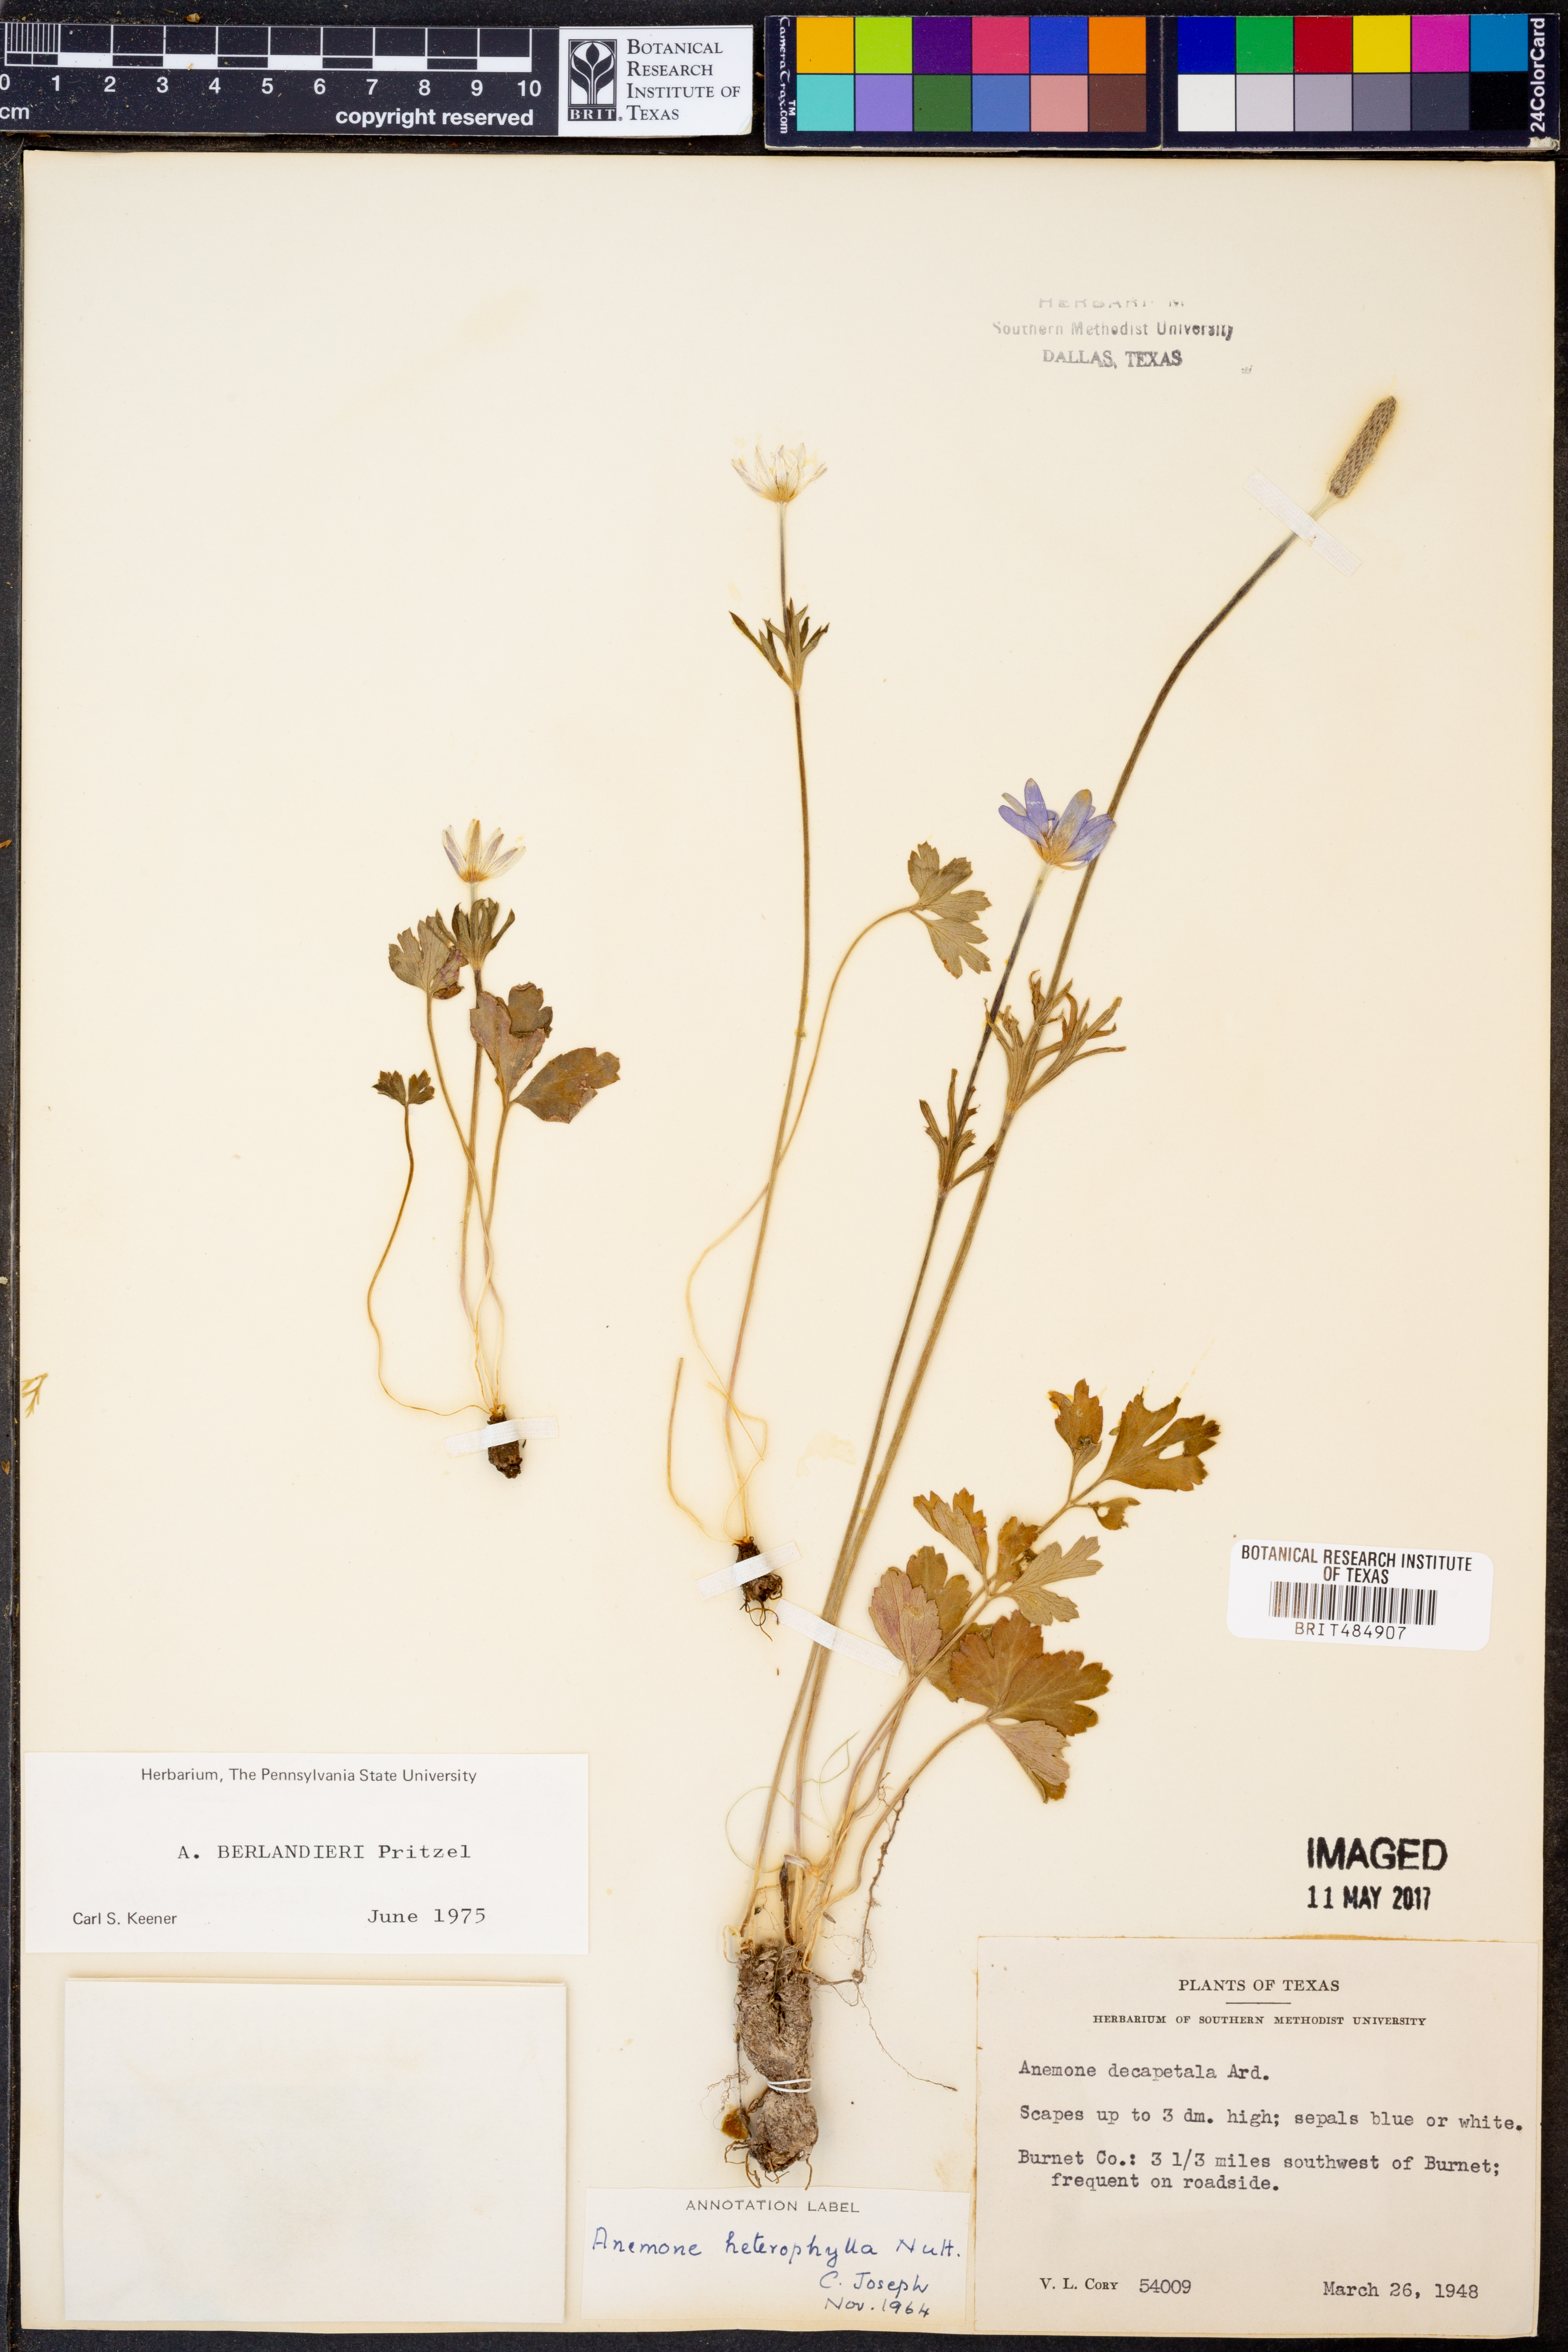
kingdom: Plantae
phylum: Tracheophyta
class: Magnoliopsida
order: Ranunculales
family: Ranunculaceae
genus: Anemone
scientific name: Anemone berlandieri
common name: Ten-petal anemone
